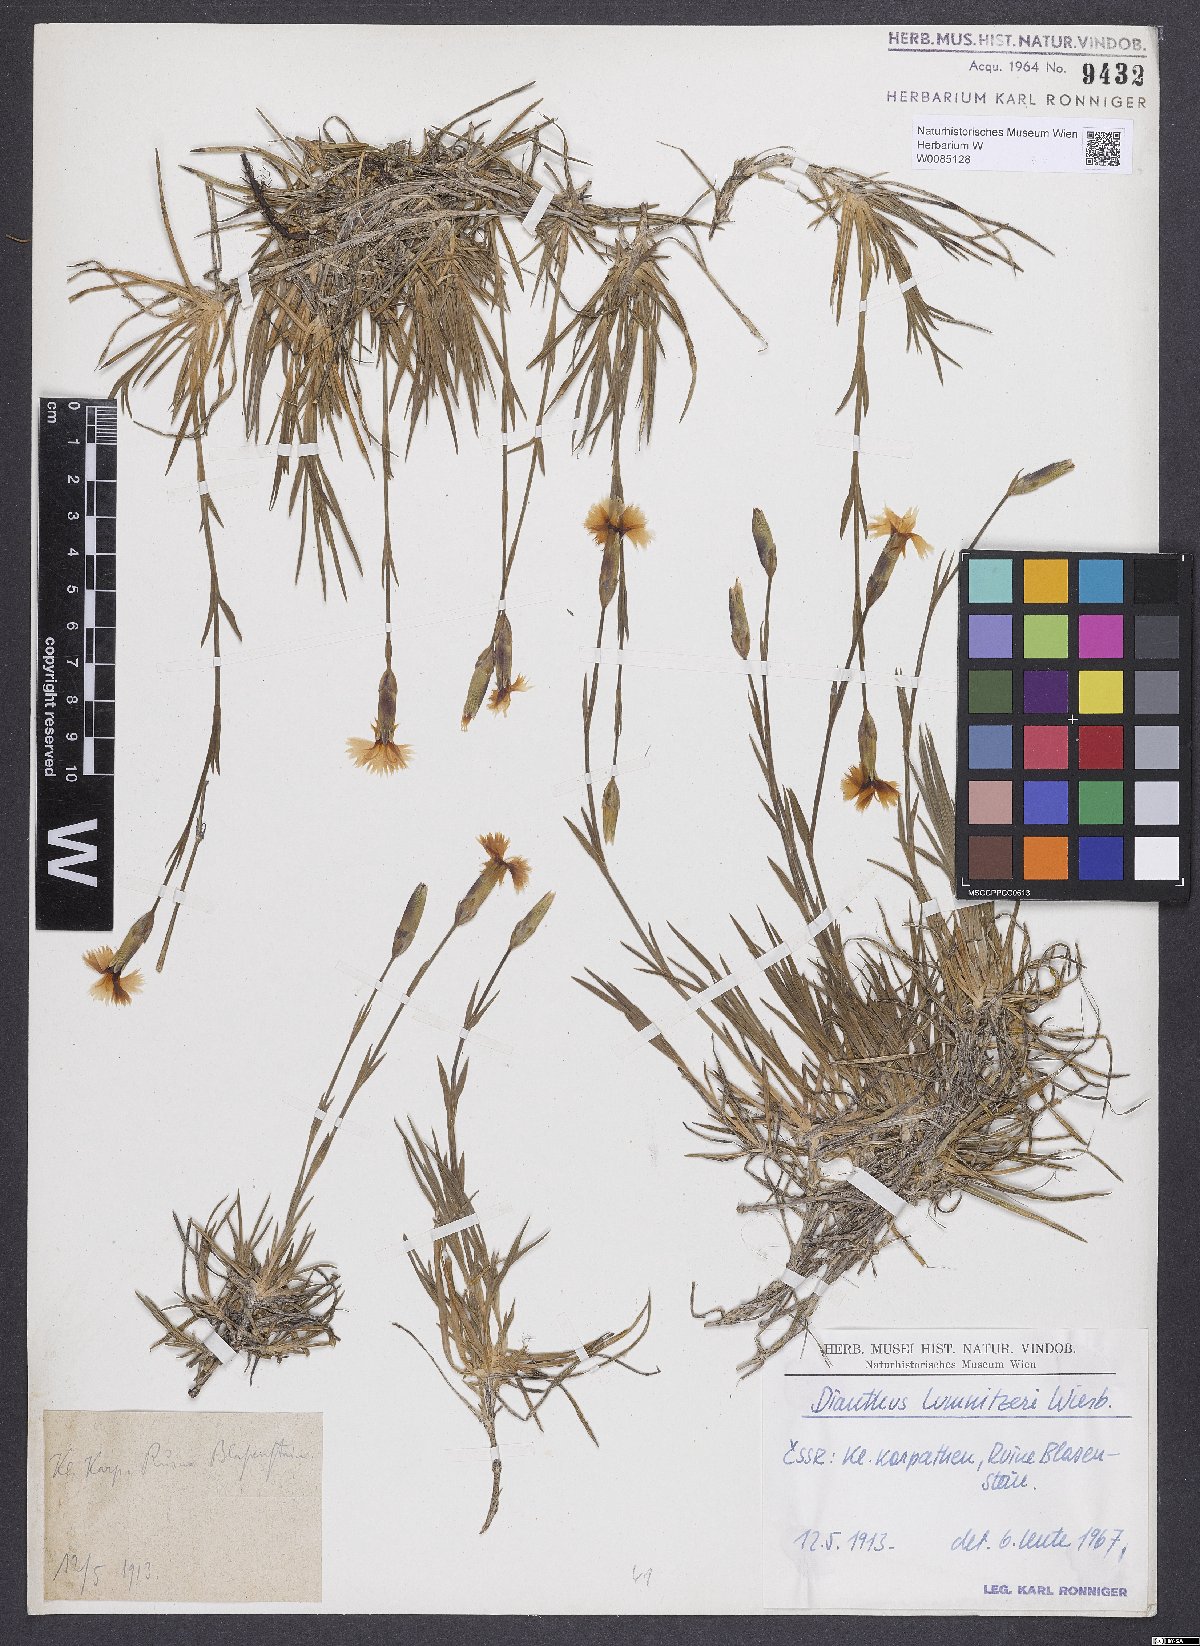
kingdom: Plantae
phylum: Tracheophyta
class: Magnoliopsida
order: Caryophyllales
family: Caryophyllaceae
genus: Dianthus
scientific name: Dianthus praecox
